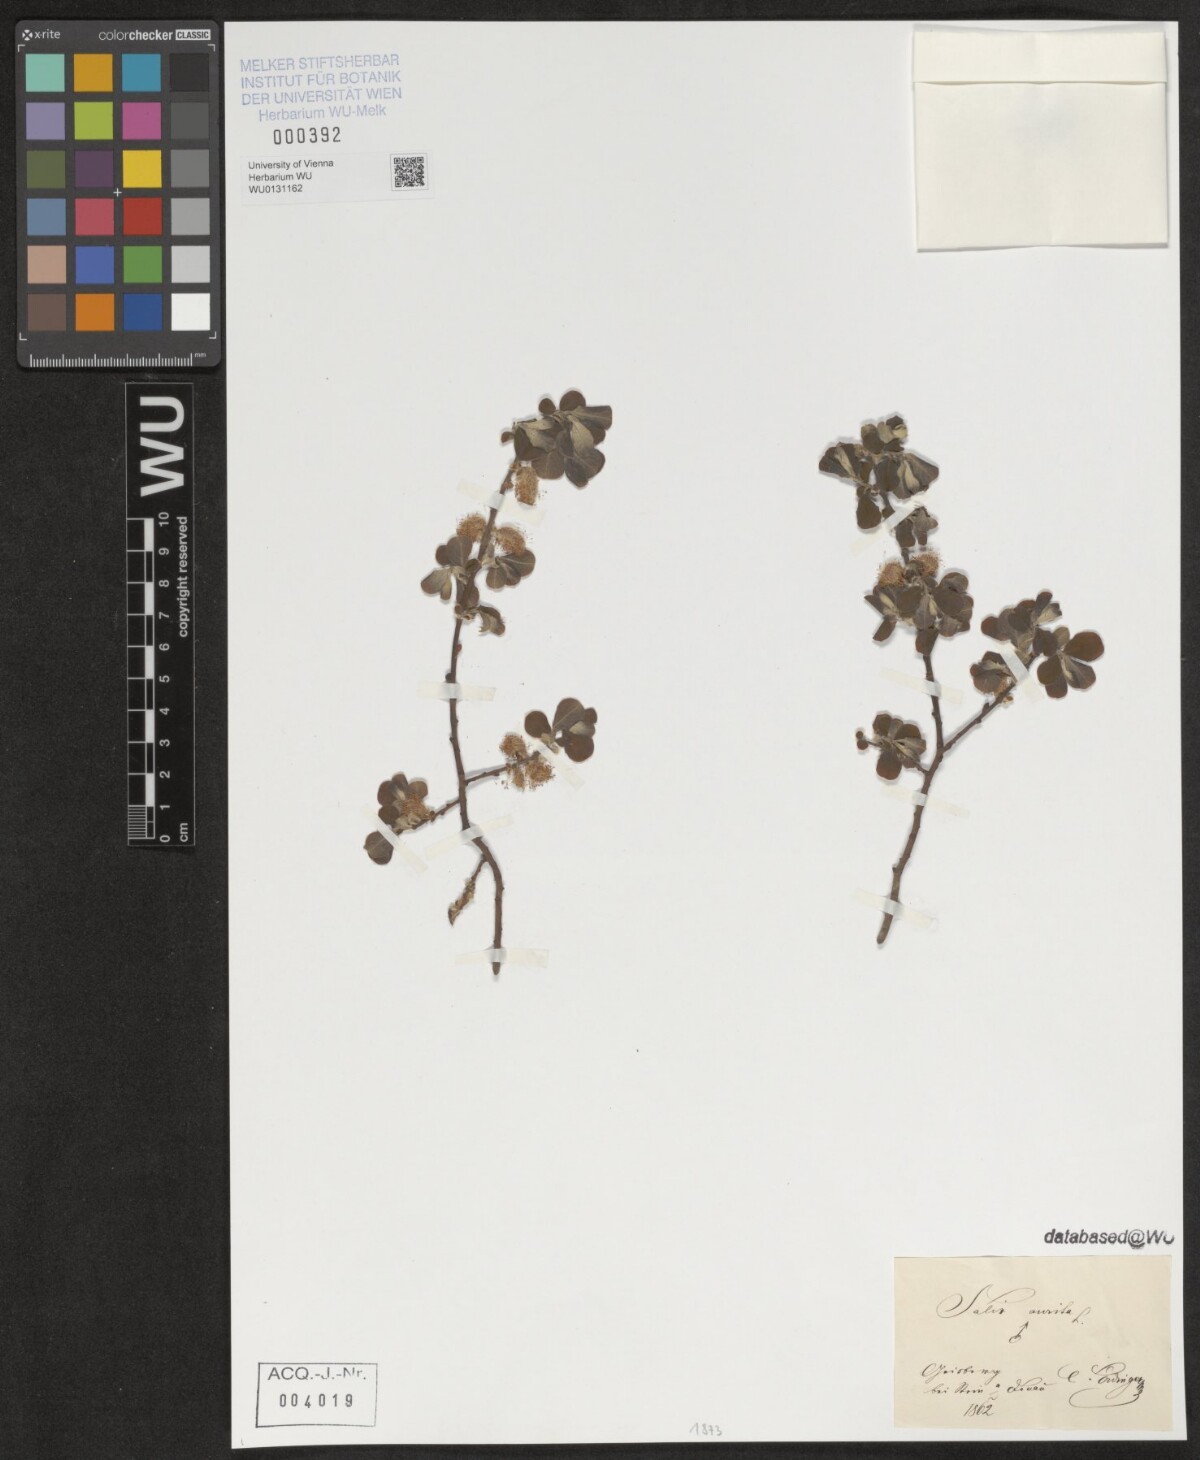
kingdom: Plantae
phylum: Tracheophyta
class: Magnoliopsida
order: Malpighiales
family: Salicaceae
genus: Salix
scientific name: Salix aurita
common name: Eared willow
